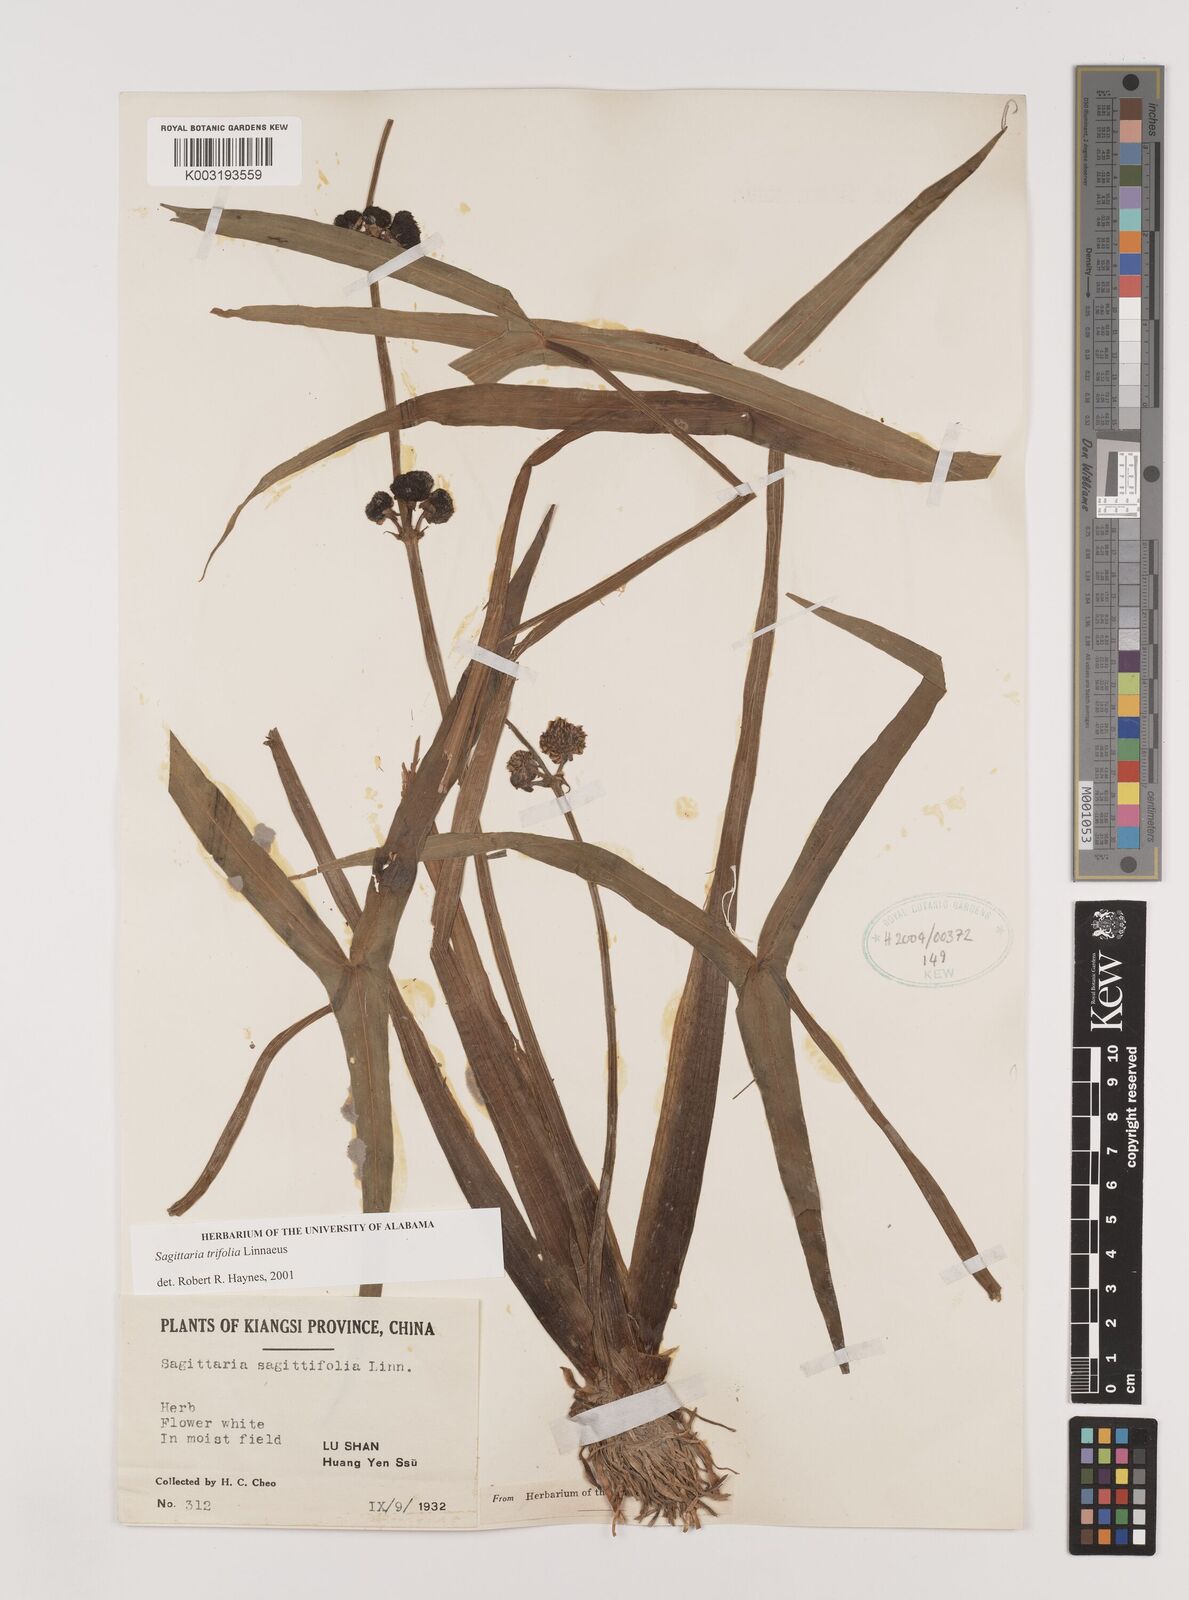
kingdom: Plantae
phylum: Tracheophyta
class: Liliopsida
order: Alismatales
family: Alismataceae
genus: Sagittaria
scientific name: Sagittaria trifolia
